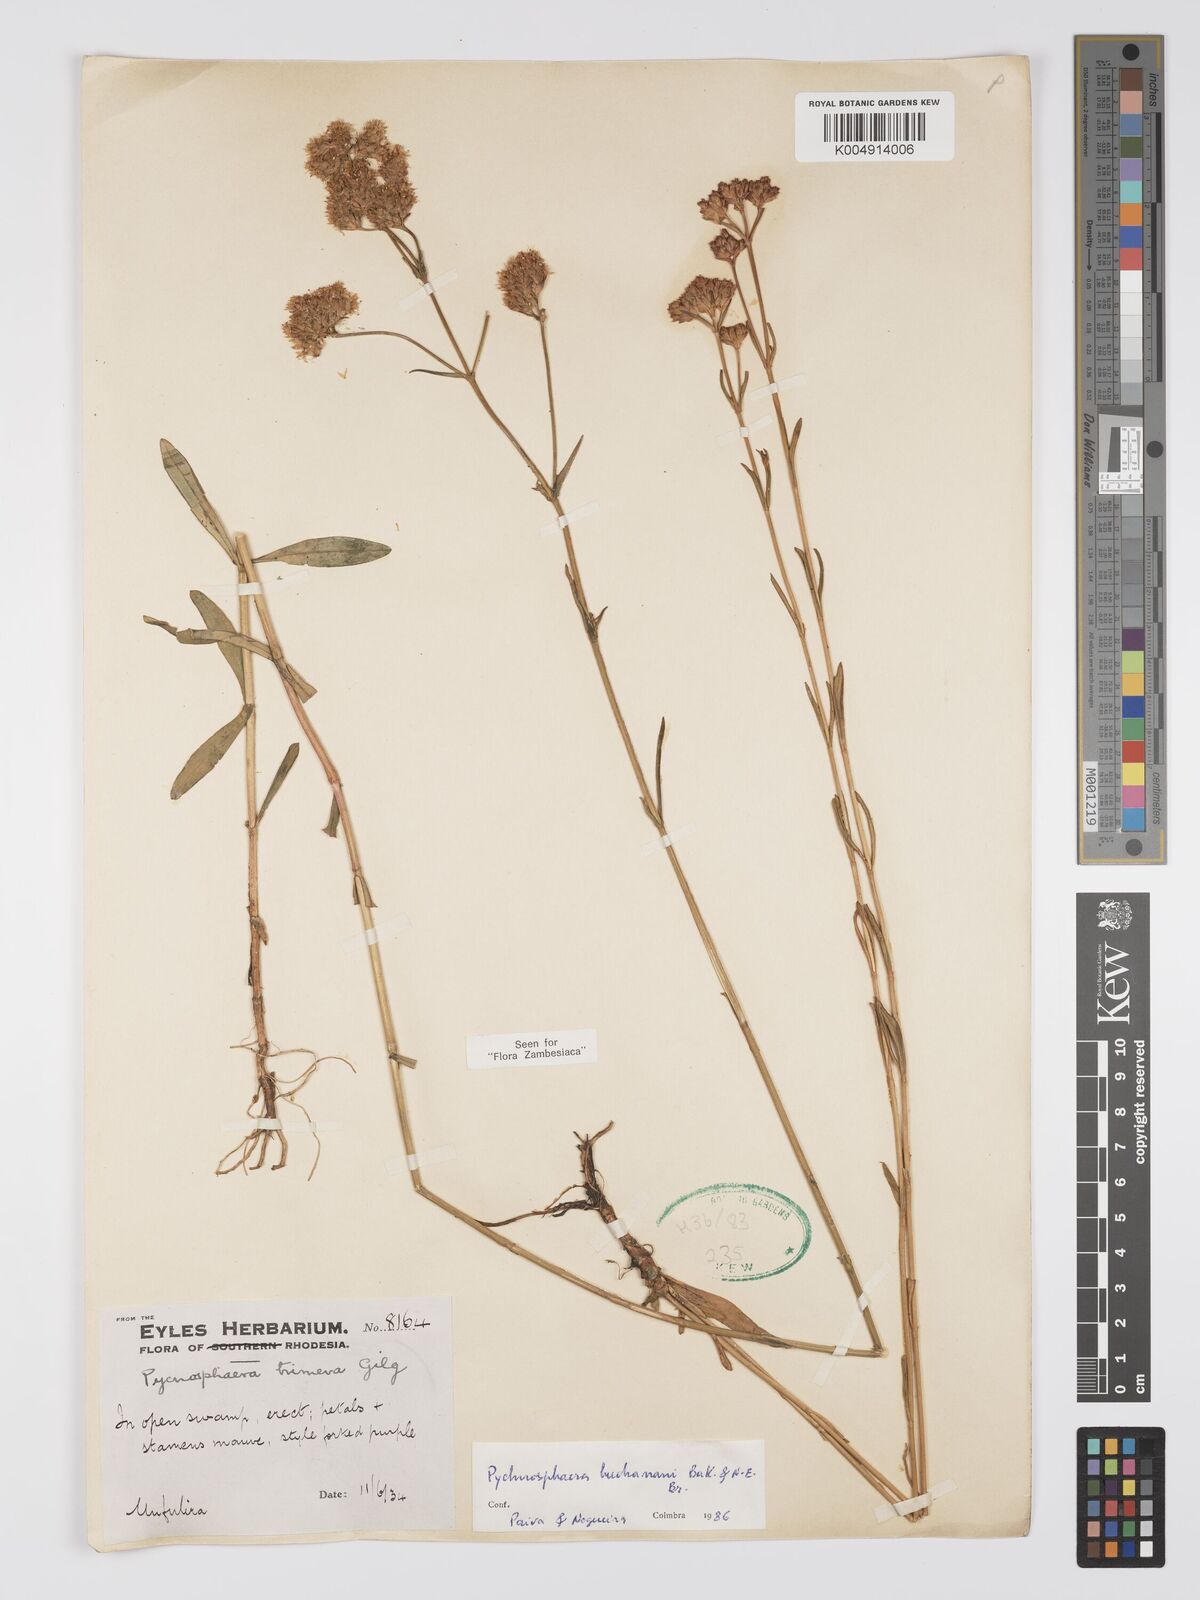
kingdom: Plantae
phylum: Tracheophyta
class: Magnoliopsida
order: Gentianales
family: Gentianaceae
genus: Pycnosphaera
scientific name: Pycnosphaera buchananii
